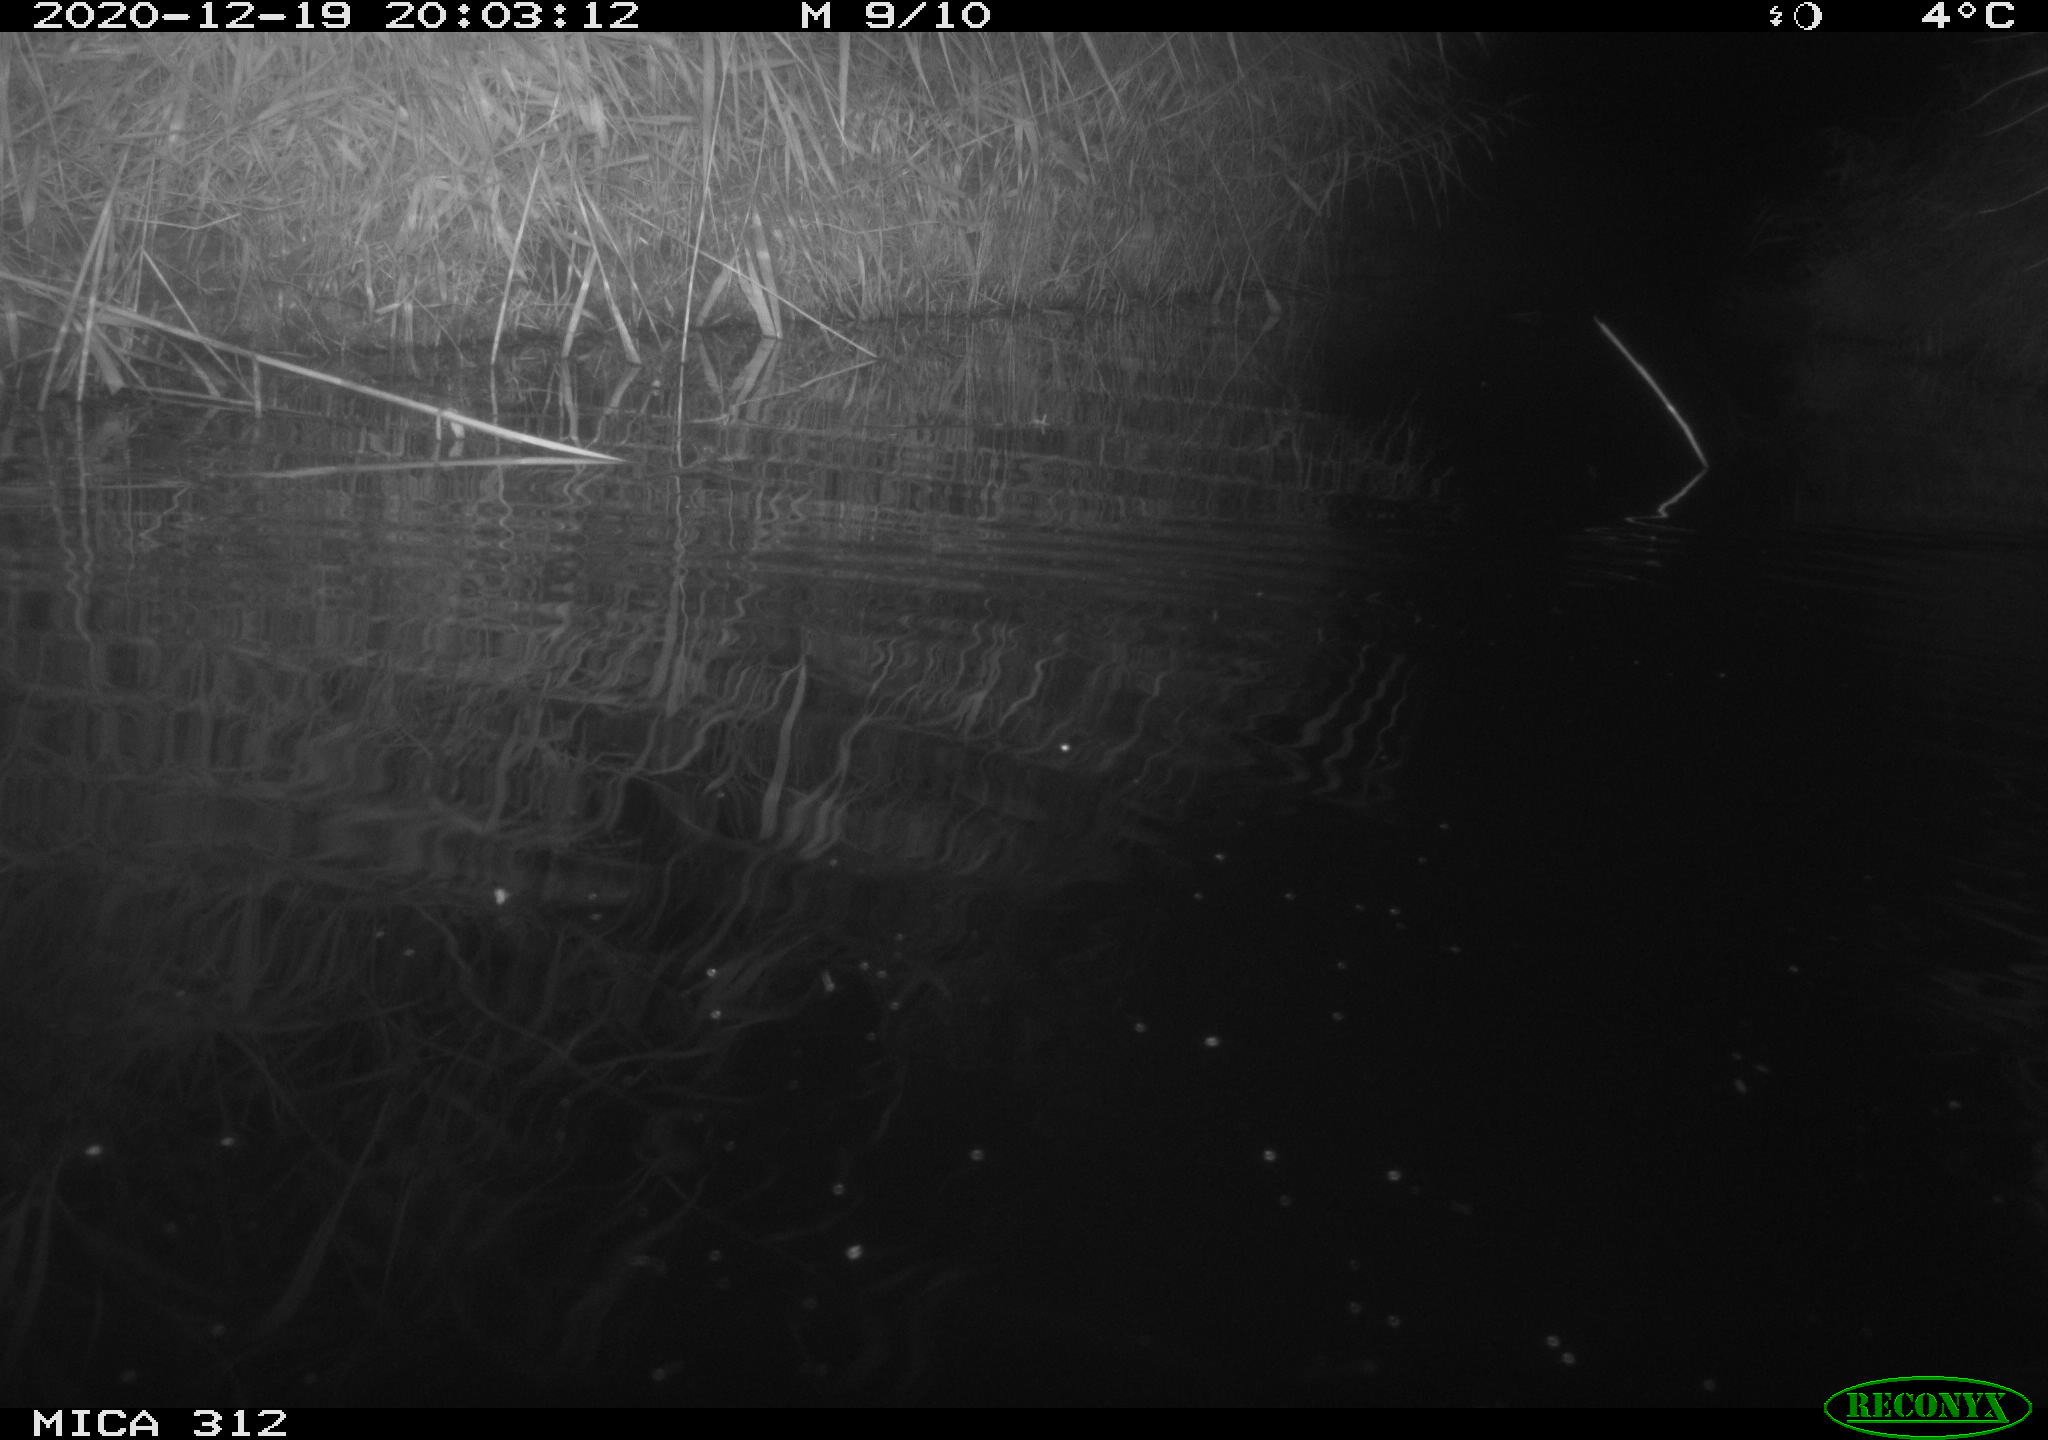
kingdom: Animalia
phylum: Chordata
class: Mammalia
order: Rodentia
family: Muridae
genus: Rattus
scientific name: Rattus norvegicus
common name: Brown rat
